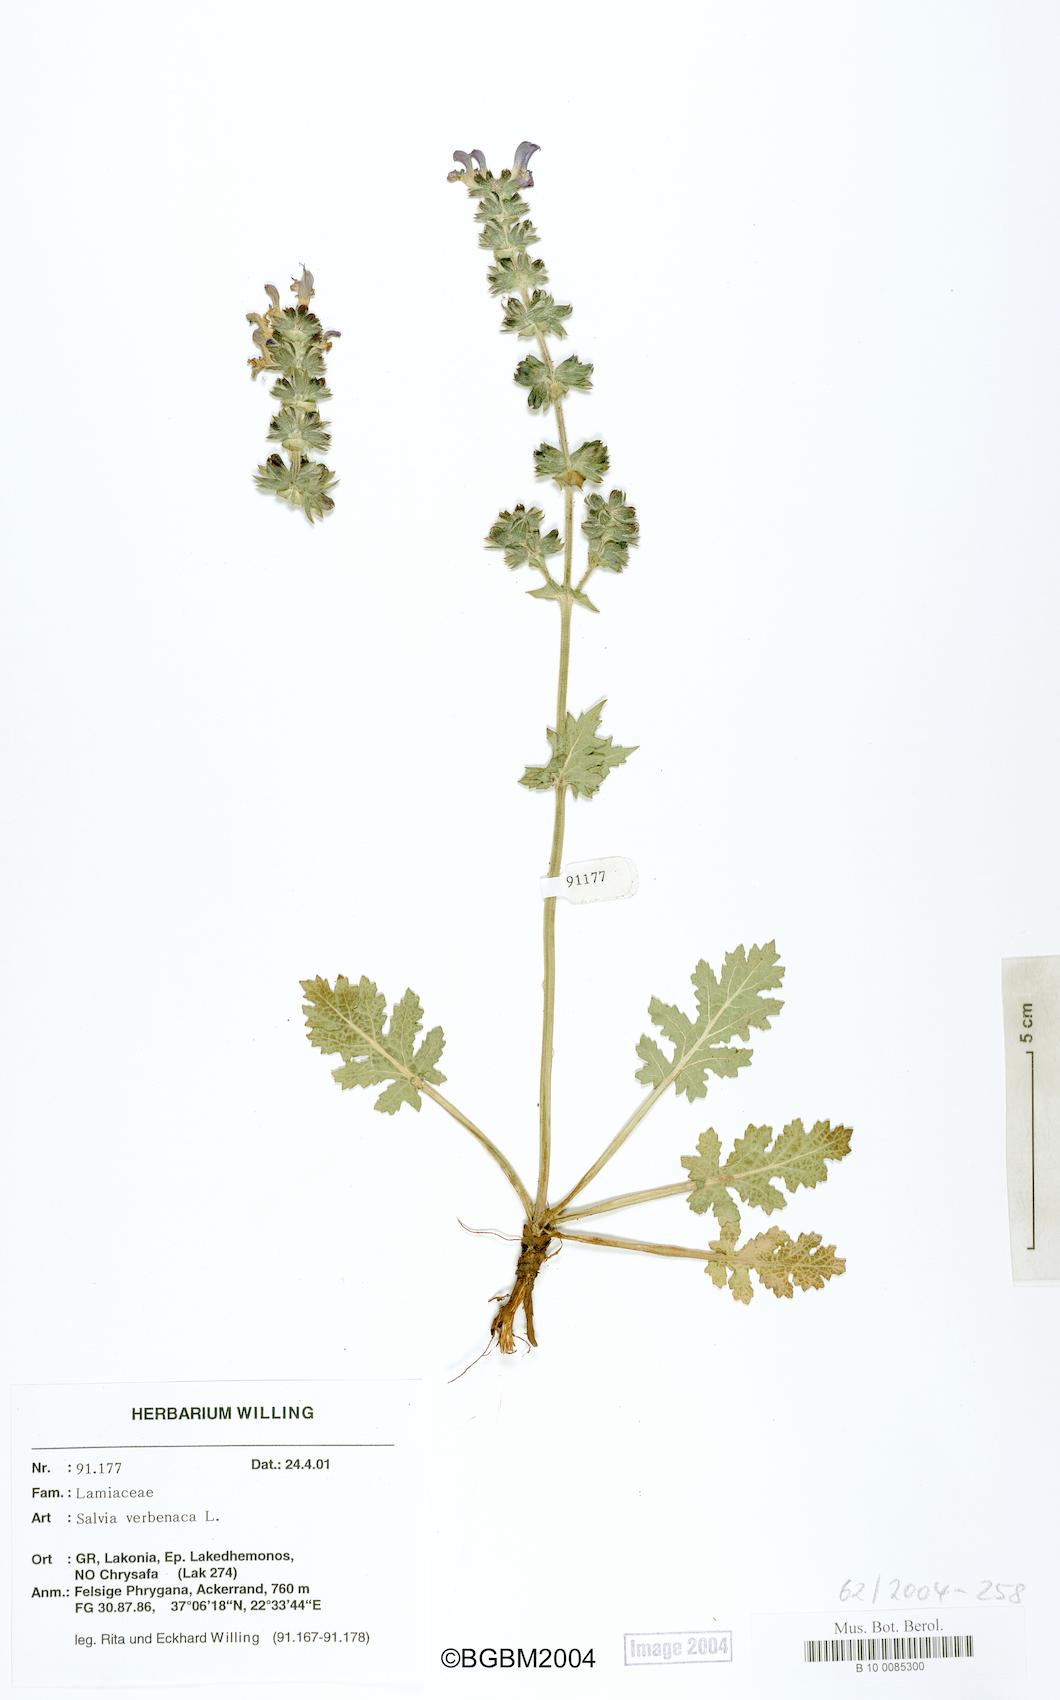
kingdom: Plantae
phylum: Tracheophyta
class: Magnoliopsida
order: Lamiales
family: Lamiaceae
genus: Salvia
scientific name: Salvia verbenaca
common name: Wild clary
